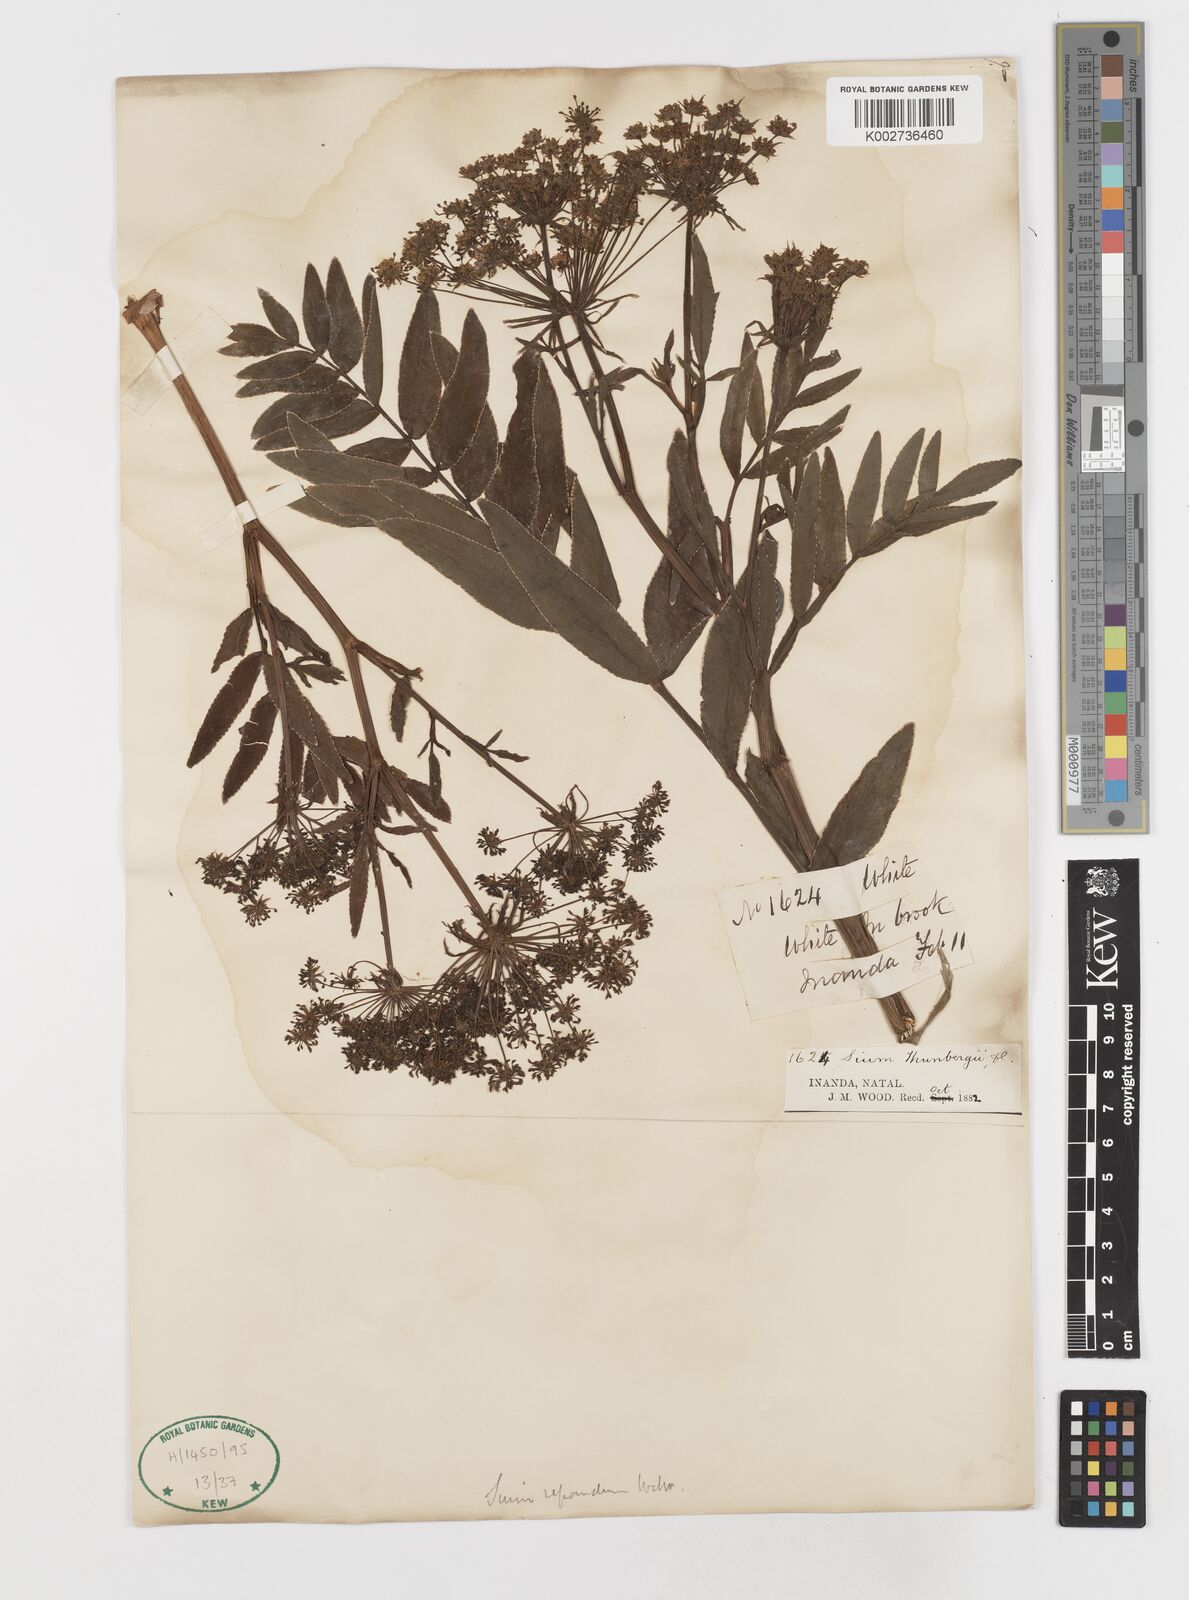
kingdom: Plantae
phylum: Tracheophyta
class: Magnoliopsida
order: Apiales
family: Apiaceae
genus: Berula
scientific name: Berula repanda
